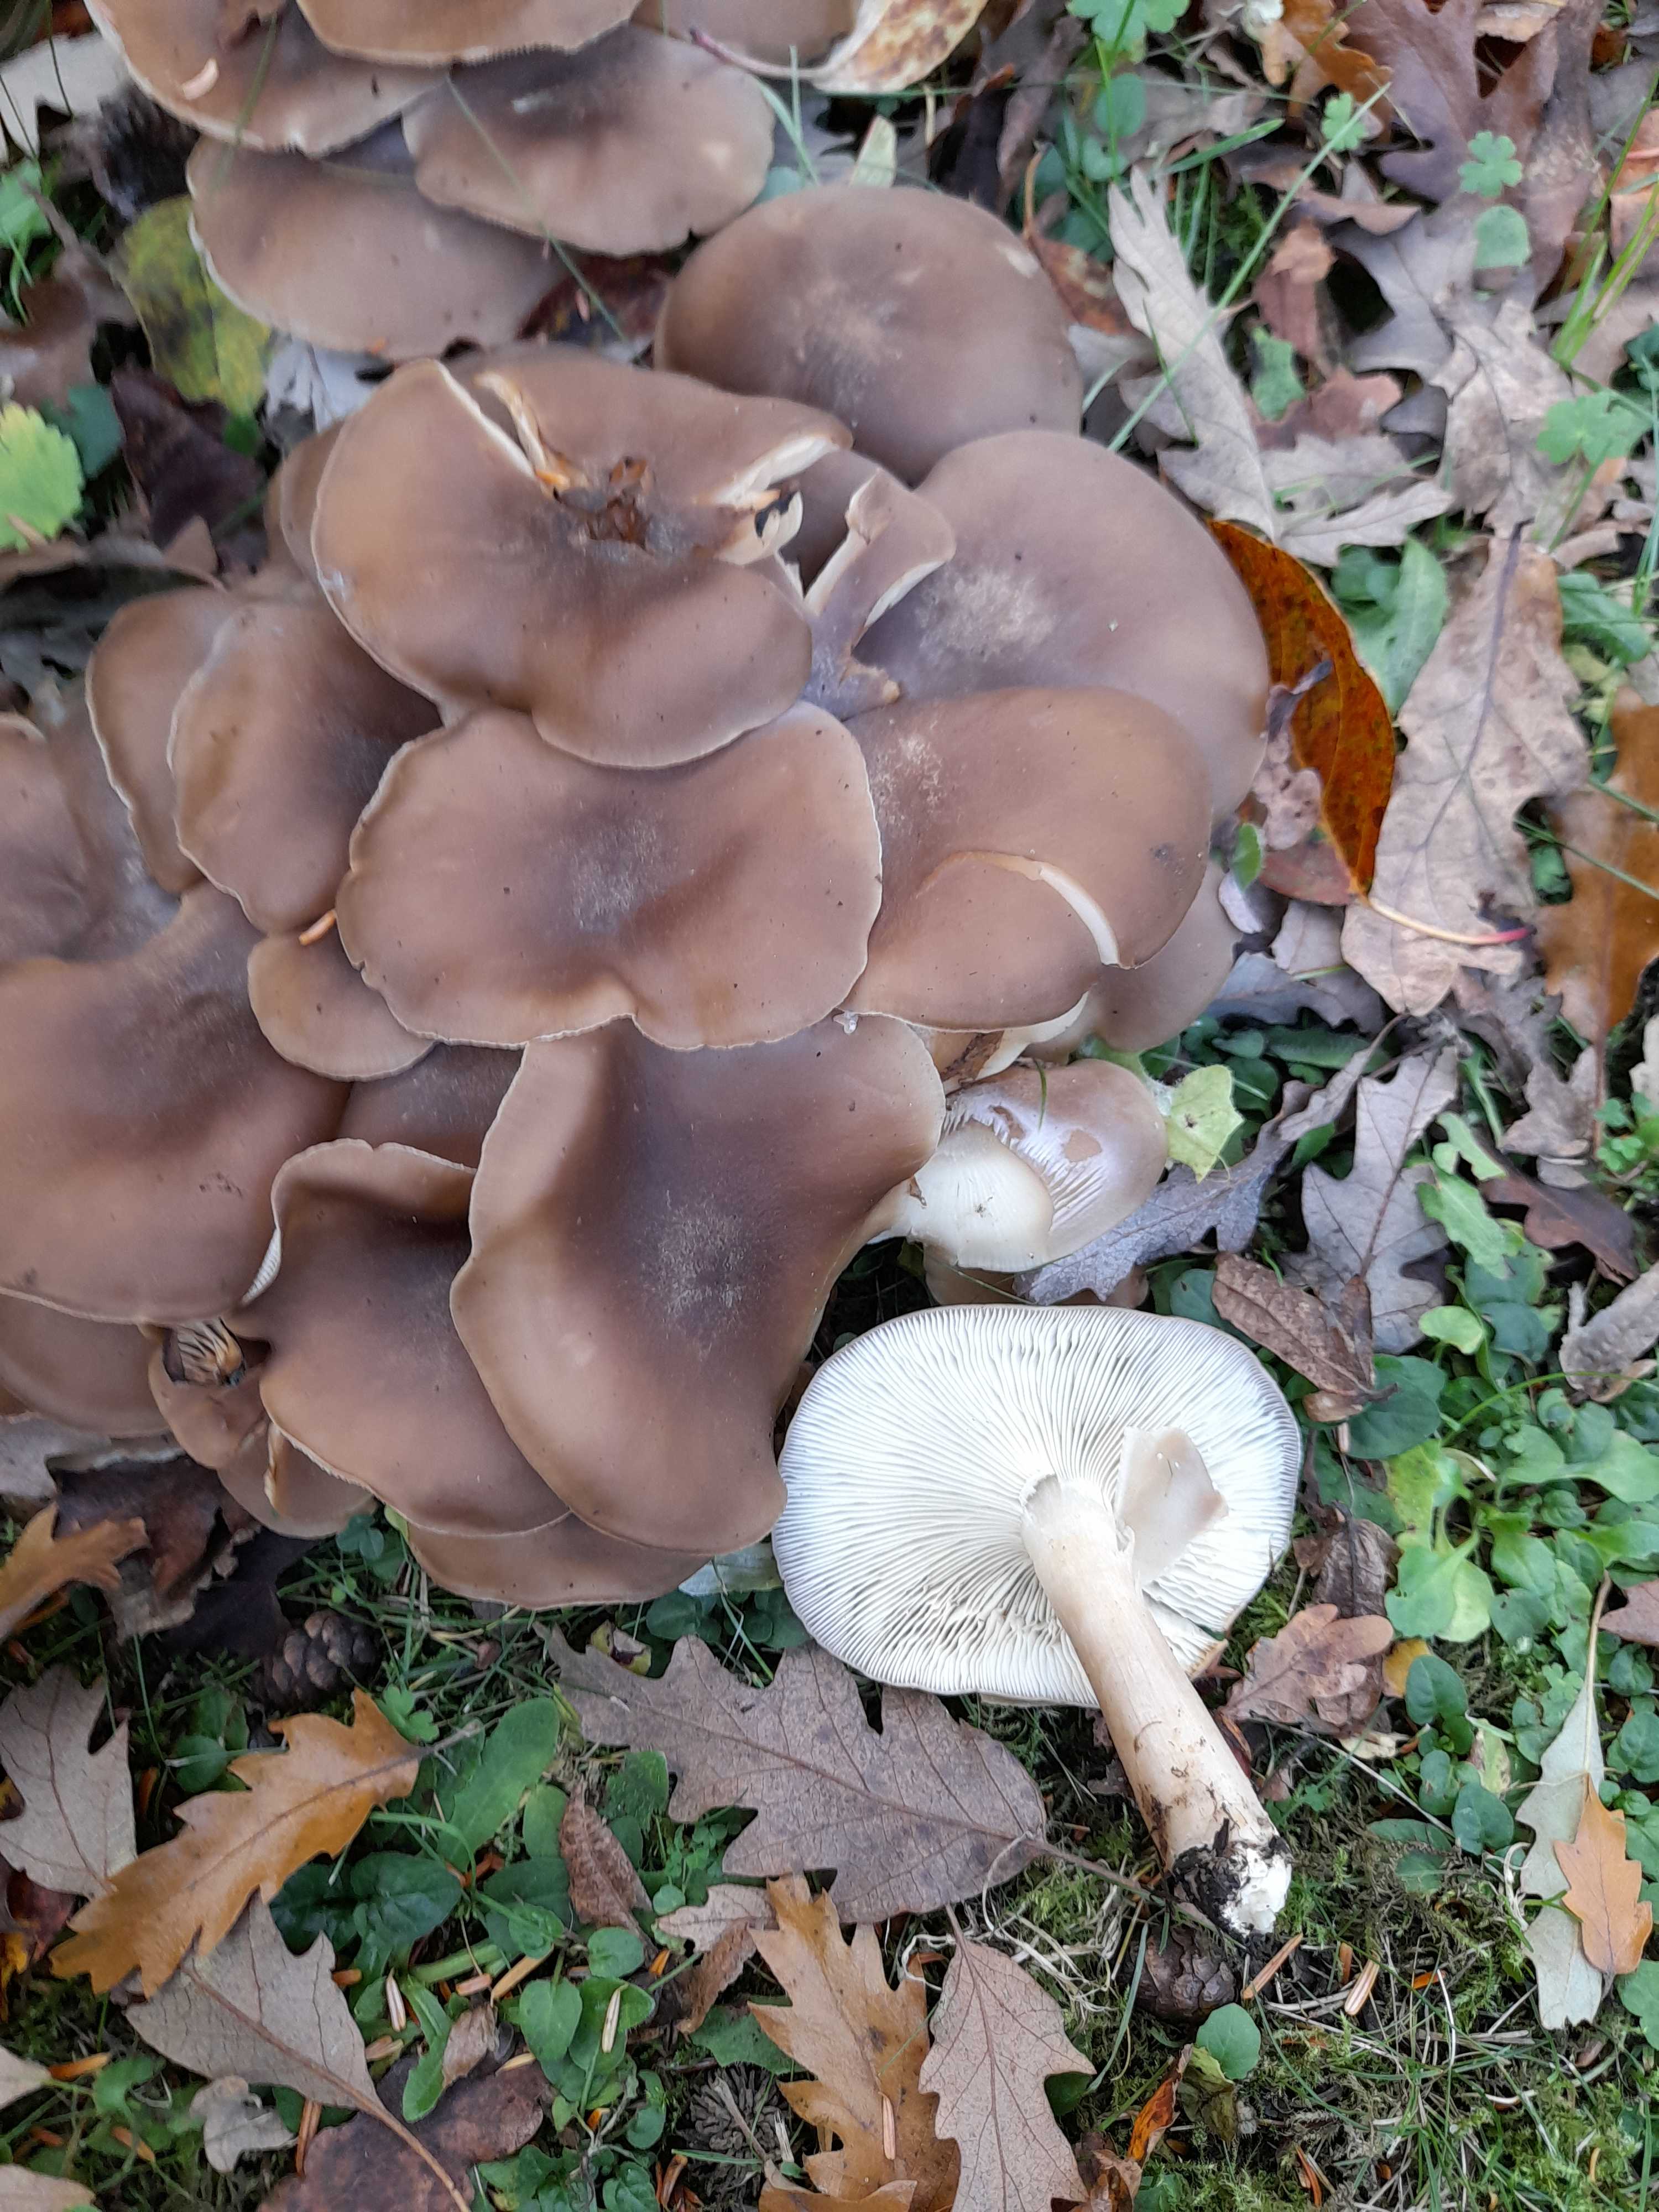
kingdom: Fungi
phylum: Basidiomycota
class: Agaricomycetes
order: Agaricales
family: Lyophyllaceae
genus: Lyophyllum
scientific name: Lyophyllum decastes
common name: Clustered domecap
